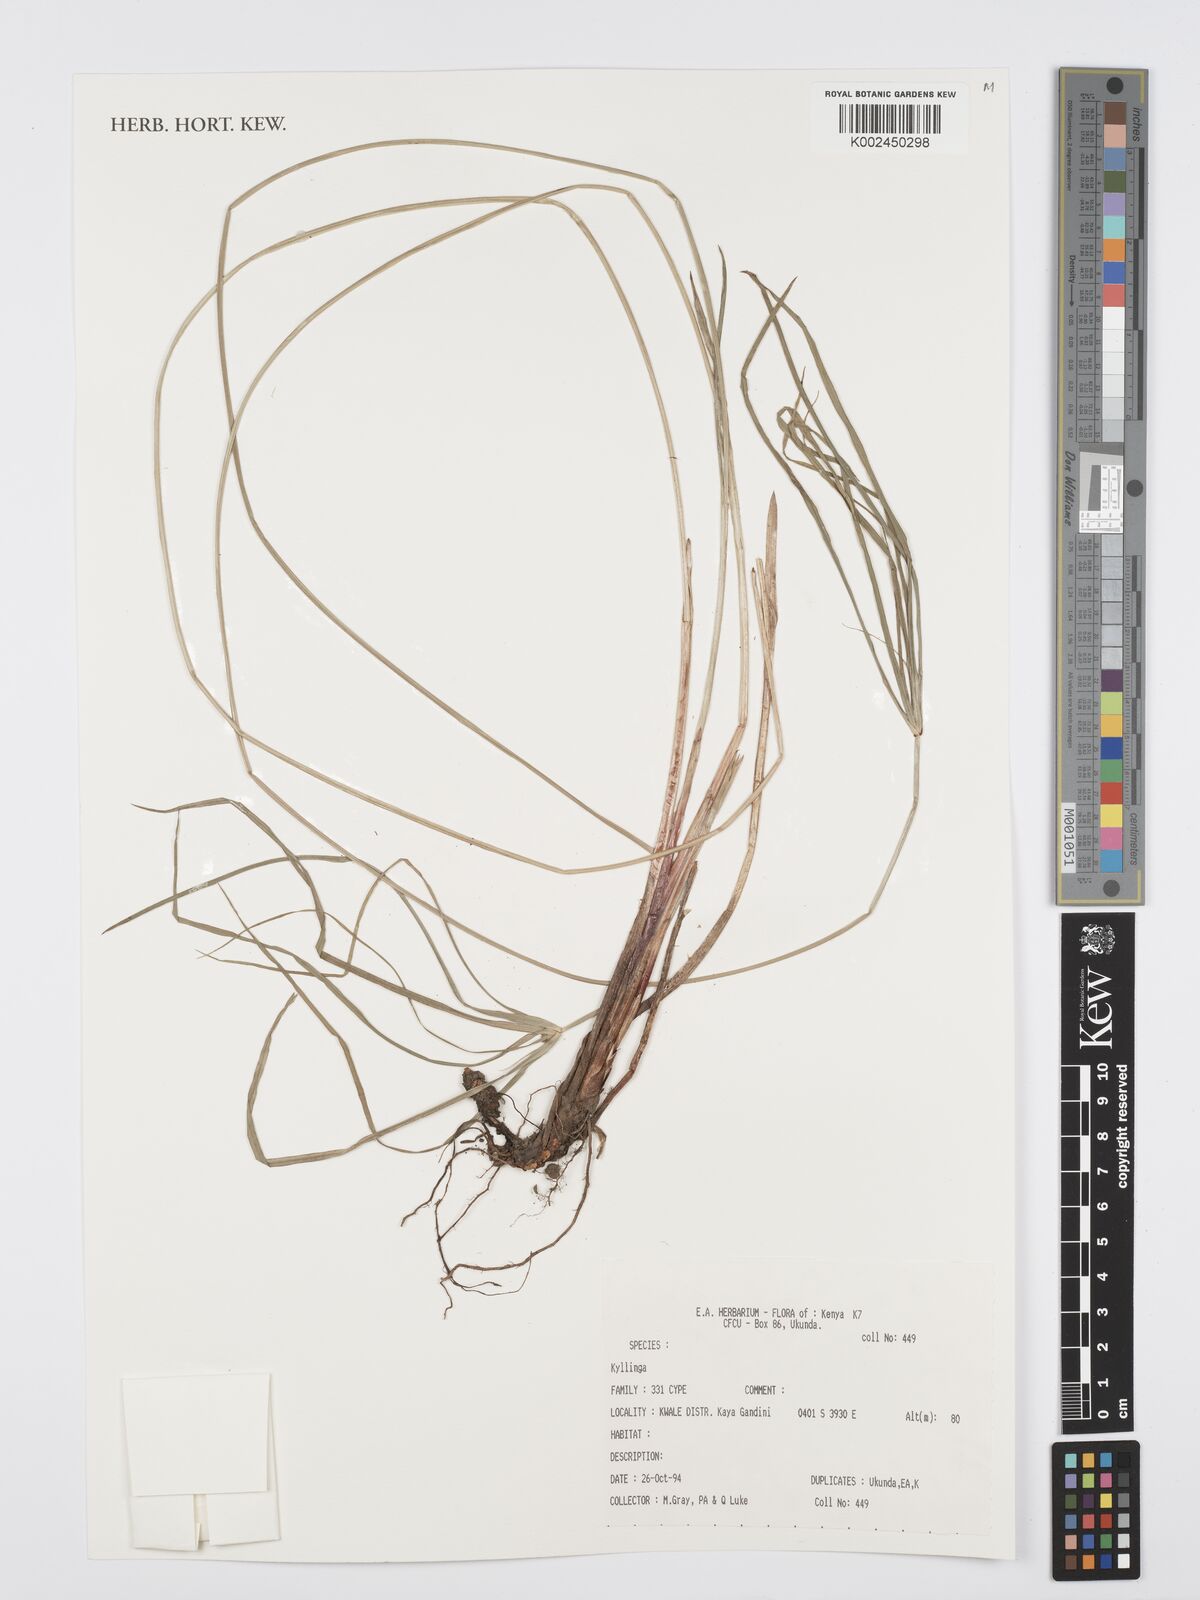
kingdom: Plantae
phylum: Tracheophyta
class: Liliopsida
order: Poales
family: Cyperaceae
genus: Cyperus
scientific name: Cyperus
